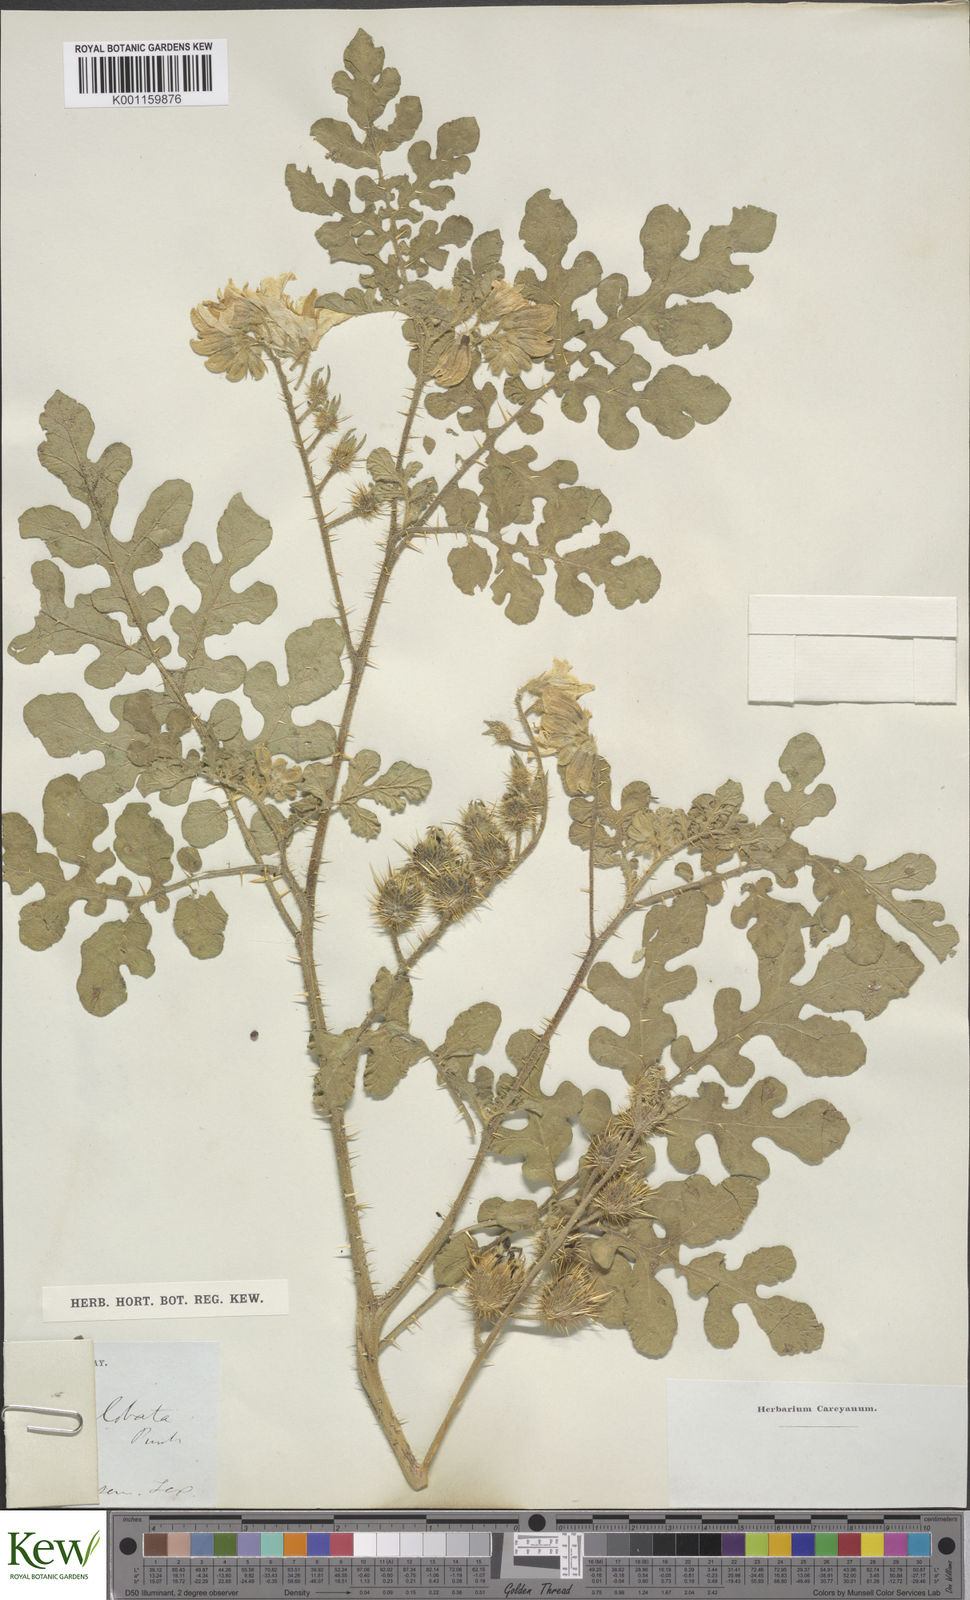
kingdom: Plantae
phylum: Tracheophyta
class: Magnoliopsida
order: Solanales
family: Solanaceae
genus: Solanum
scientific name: Solanum angustifolium
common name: Buffalobur nightshade
